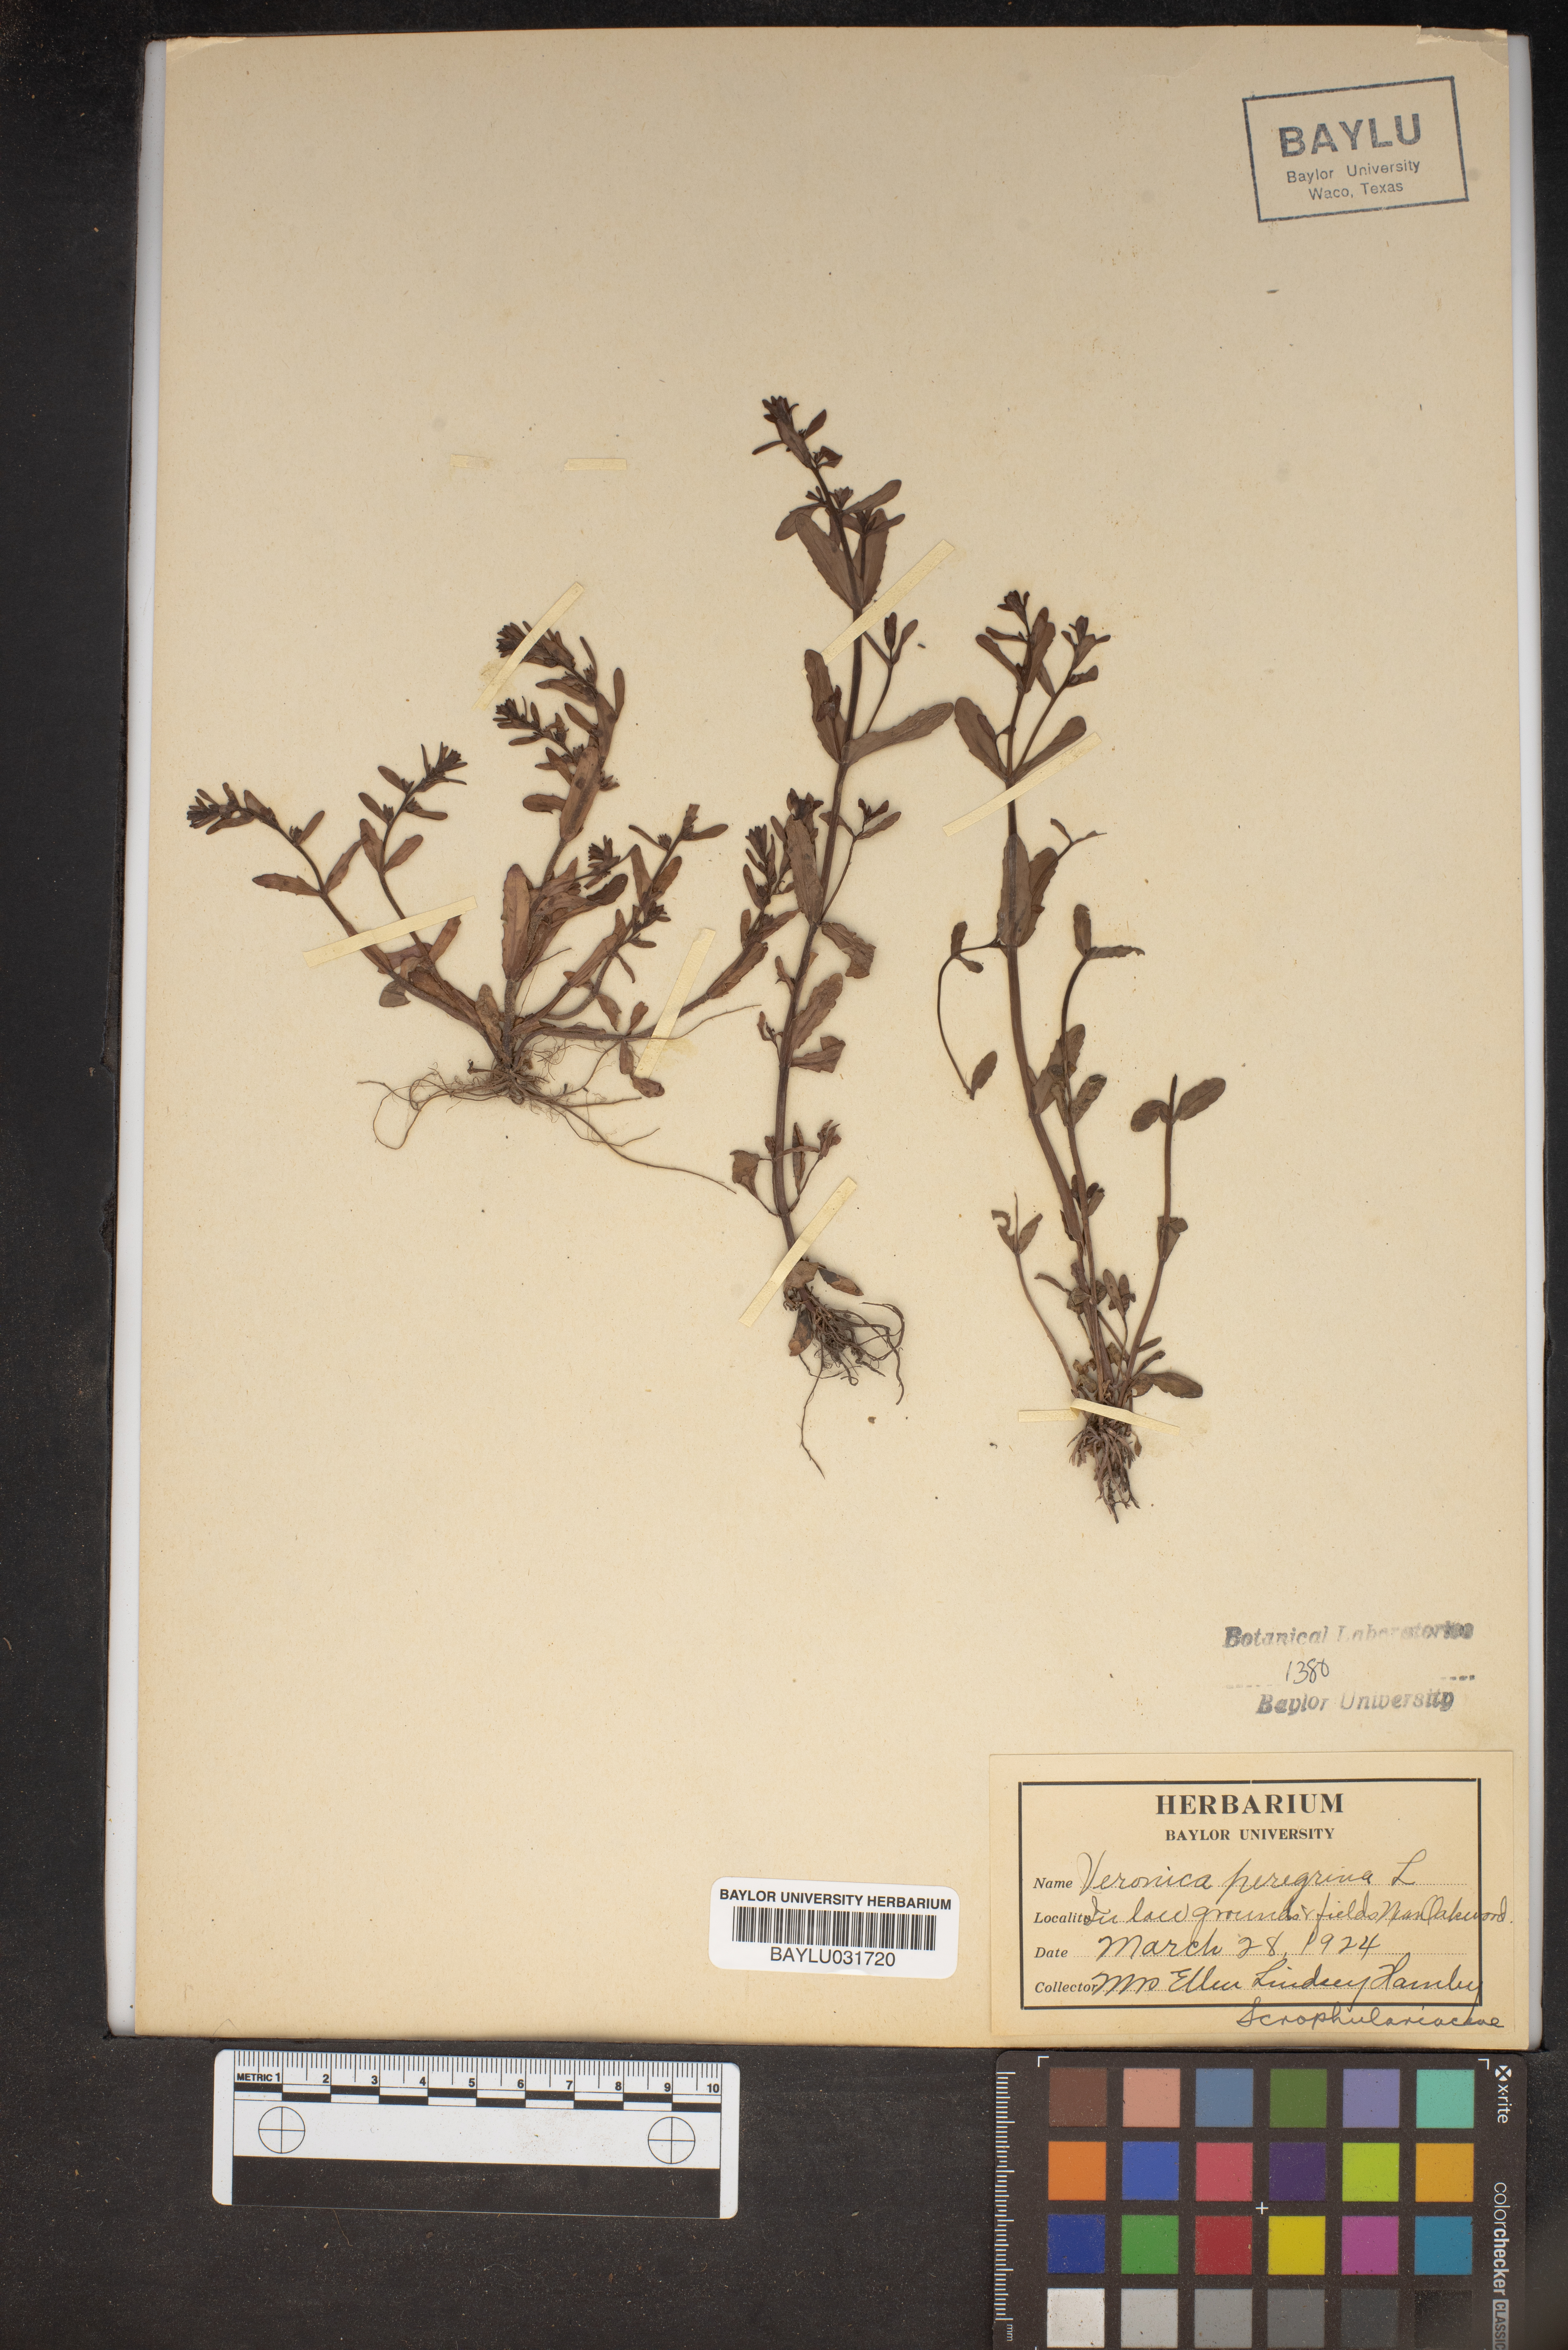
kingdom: Plantae
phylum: Tracheophyta
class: Magnoliopsida
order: Lamiales
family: Plantaginaceae
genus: Veronica
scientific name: Veronica peregrina
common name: Neckweed
